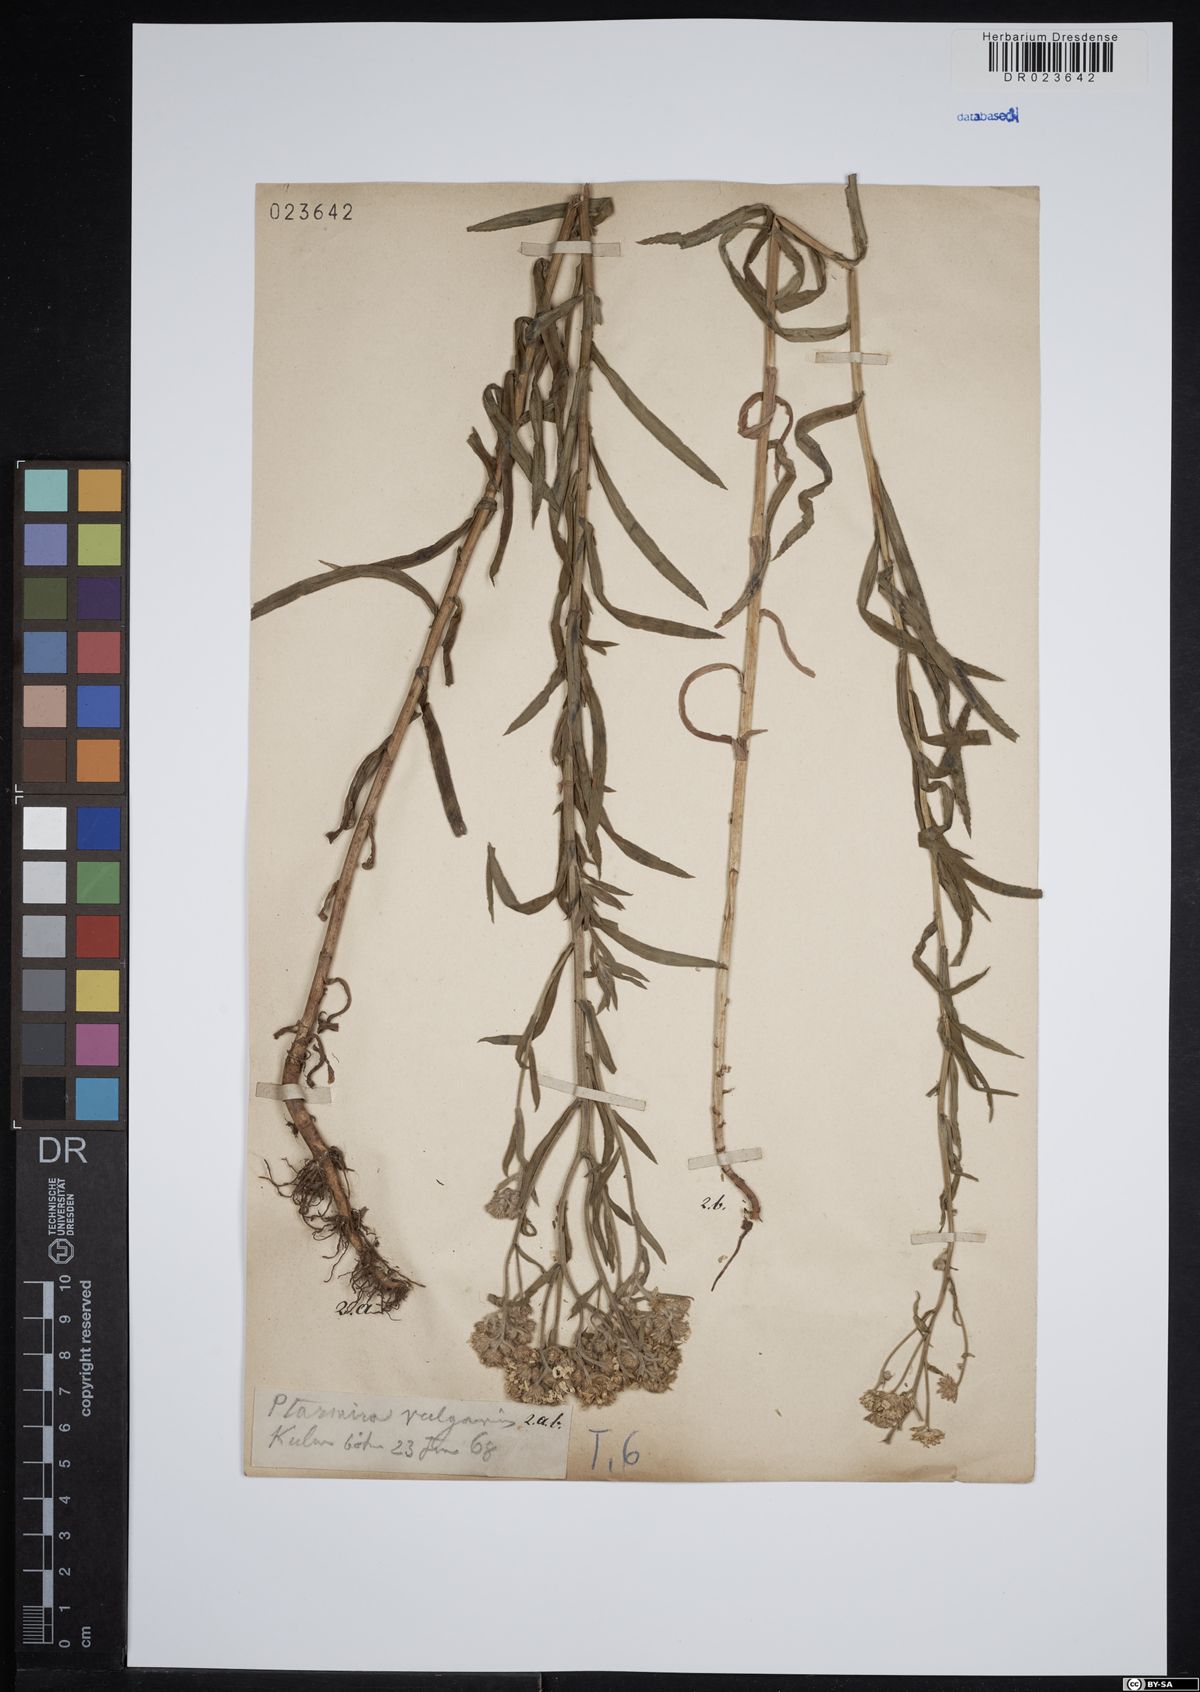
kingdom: Plantae
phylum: Tracheophyta
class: Magnoliopsida
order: Asterales
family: Asteraceae
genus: Achillea
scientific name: Achillea ptarmica
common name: Sneezeweed
